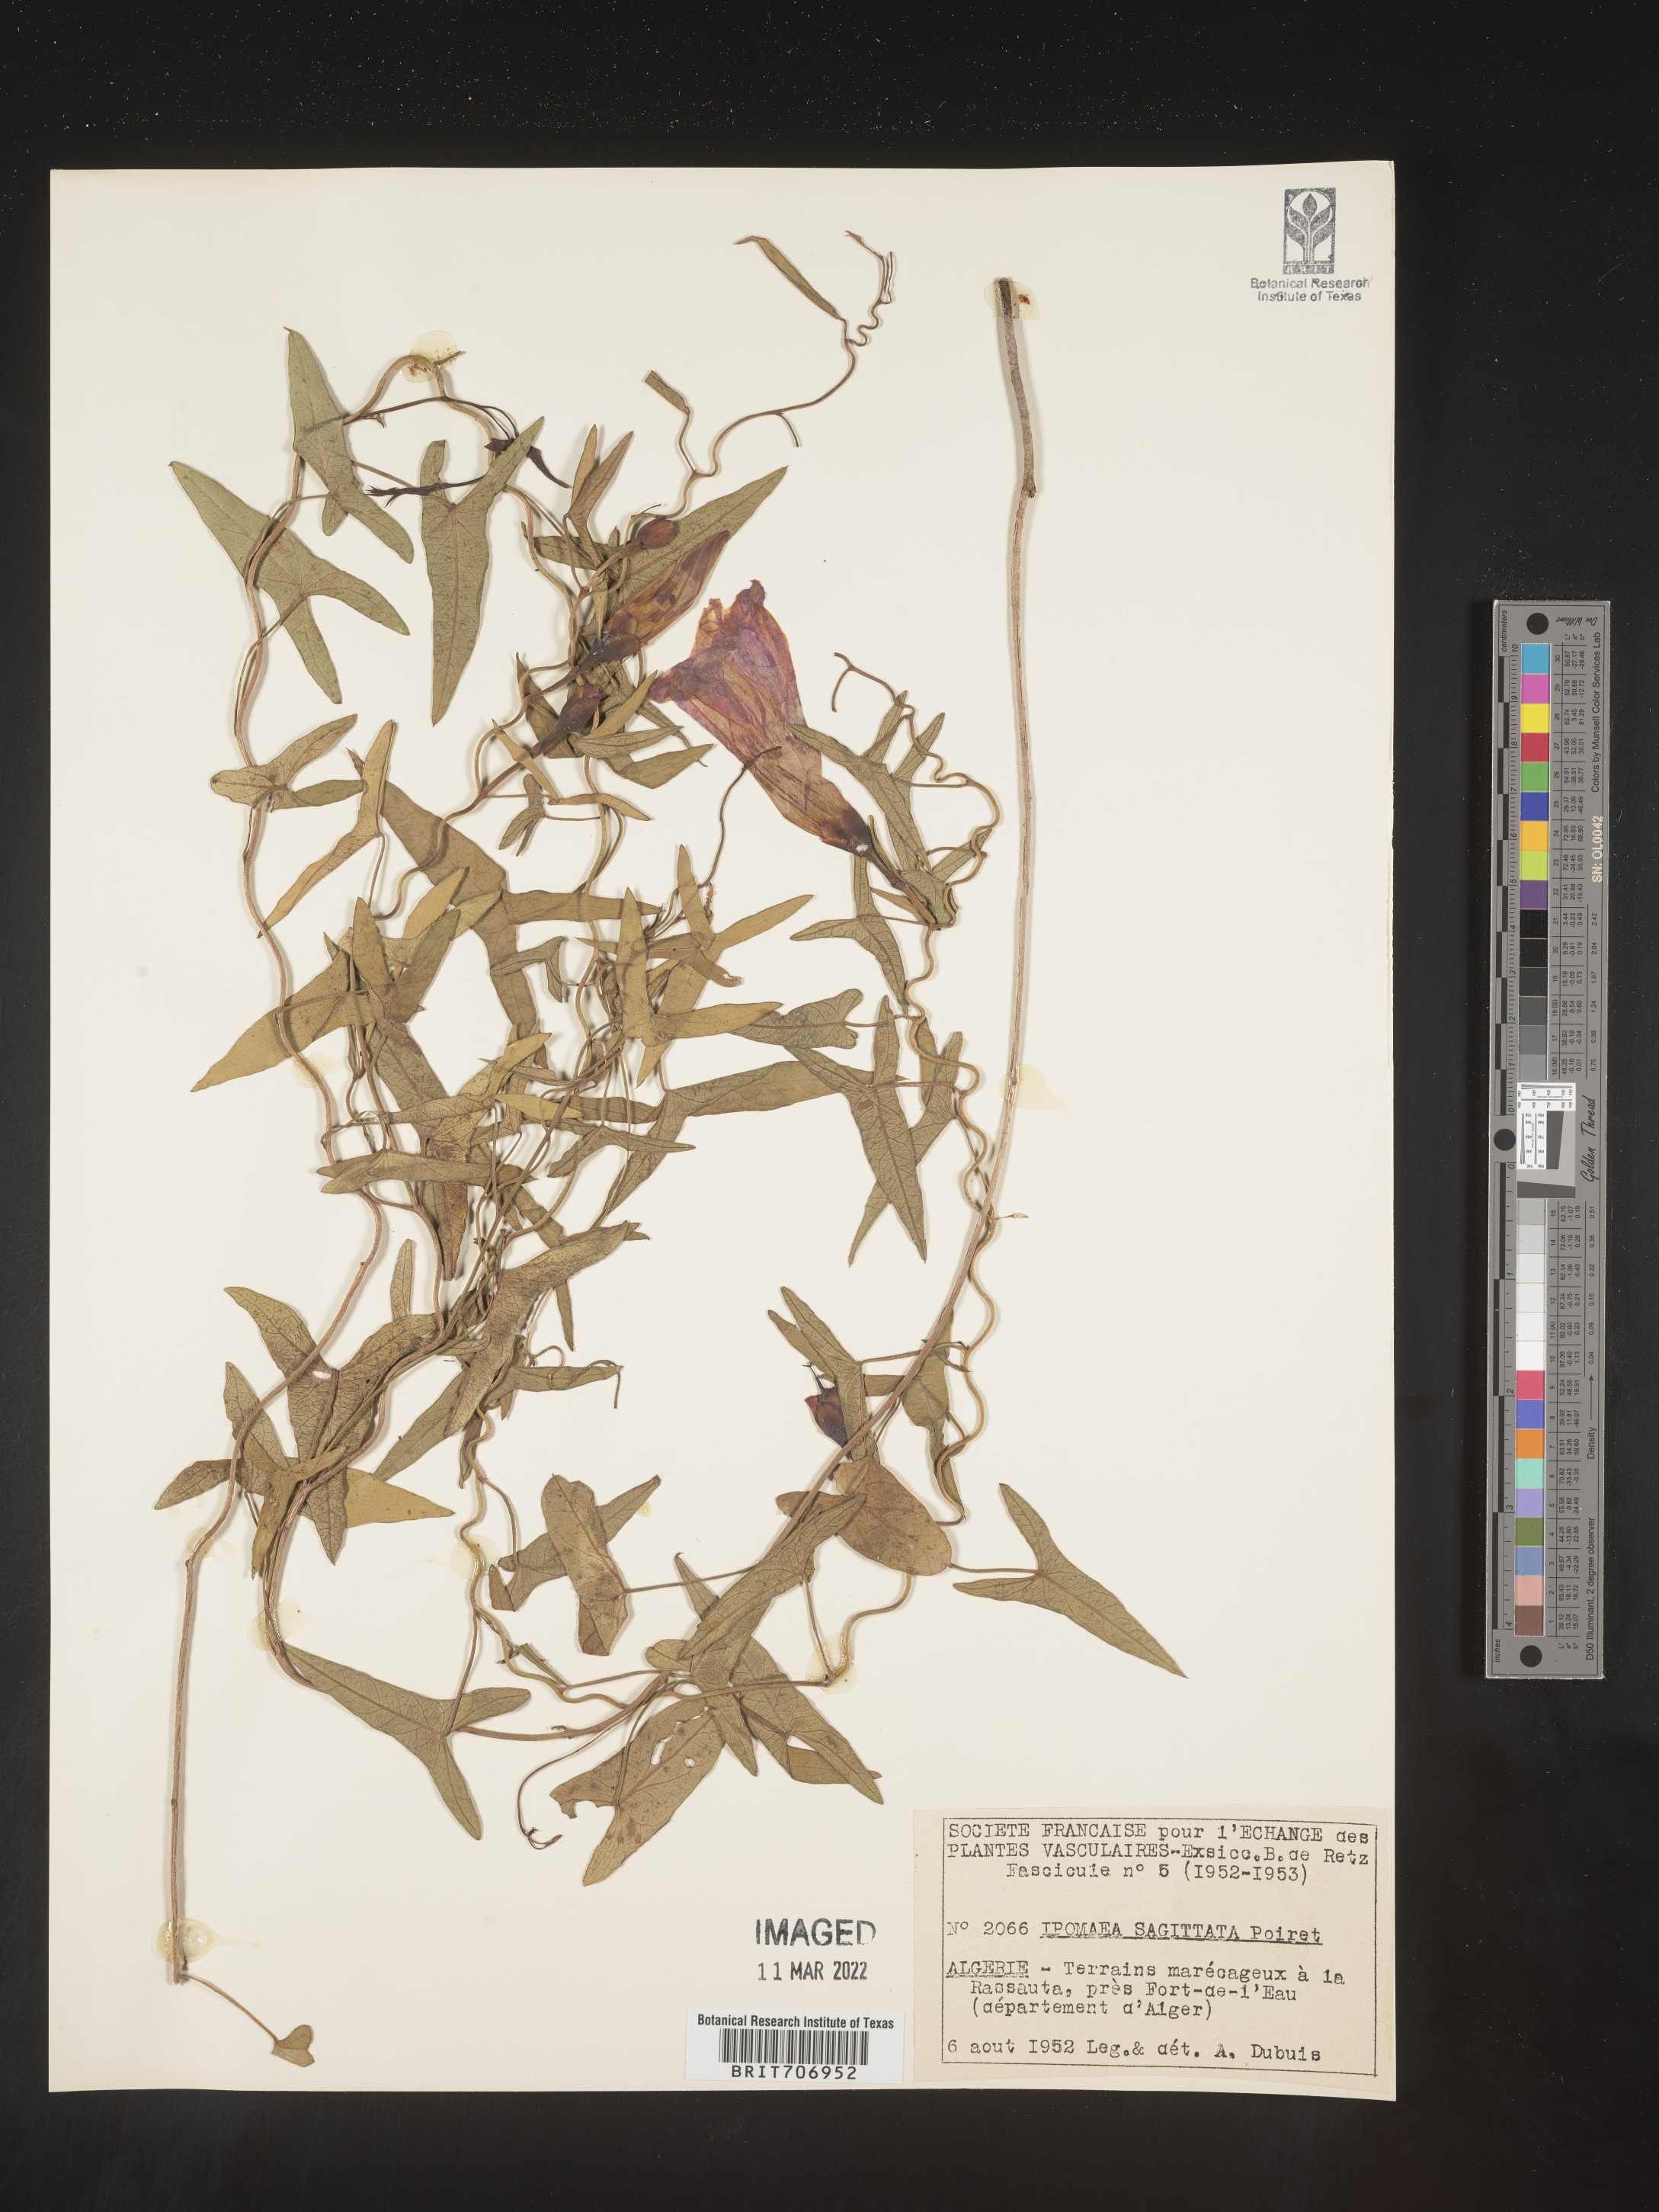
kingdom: Plantae
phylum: Tracheophyta
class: Magnoliopsida
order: Solanales
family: Convolvulaceae
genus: Ipomoea
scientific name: Ipomoea
